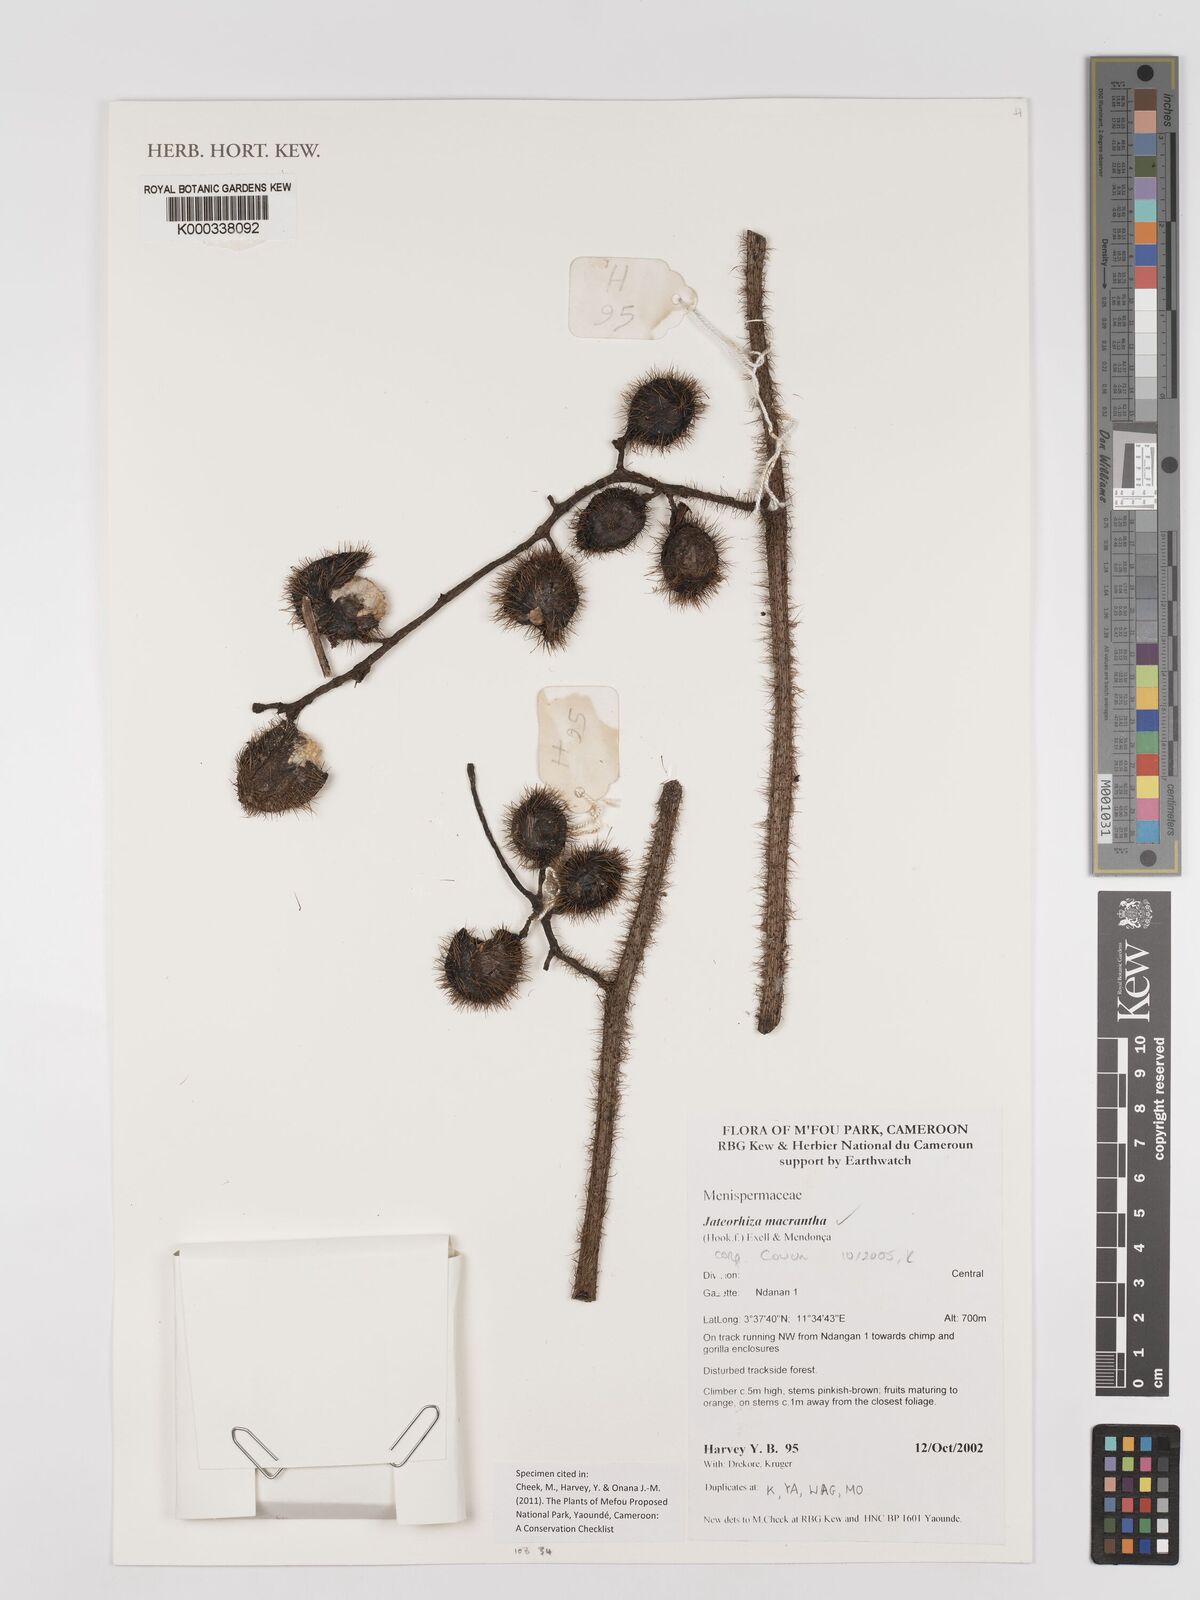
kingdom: Plantae
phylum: Tracheophyta
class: Magnoliopsida
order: Ranunculales
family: Menispermaceae
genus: Jateorhiza
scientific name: Jateorhiza
